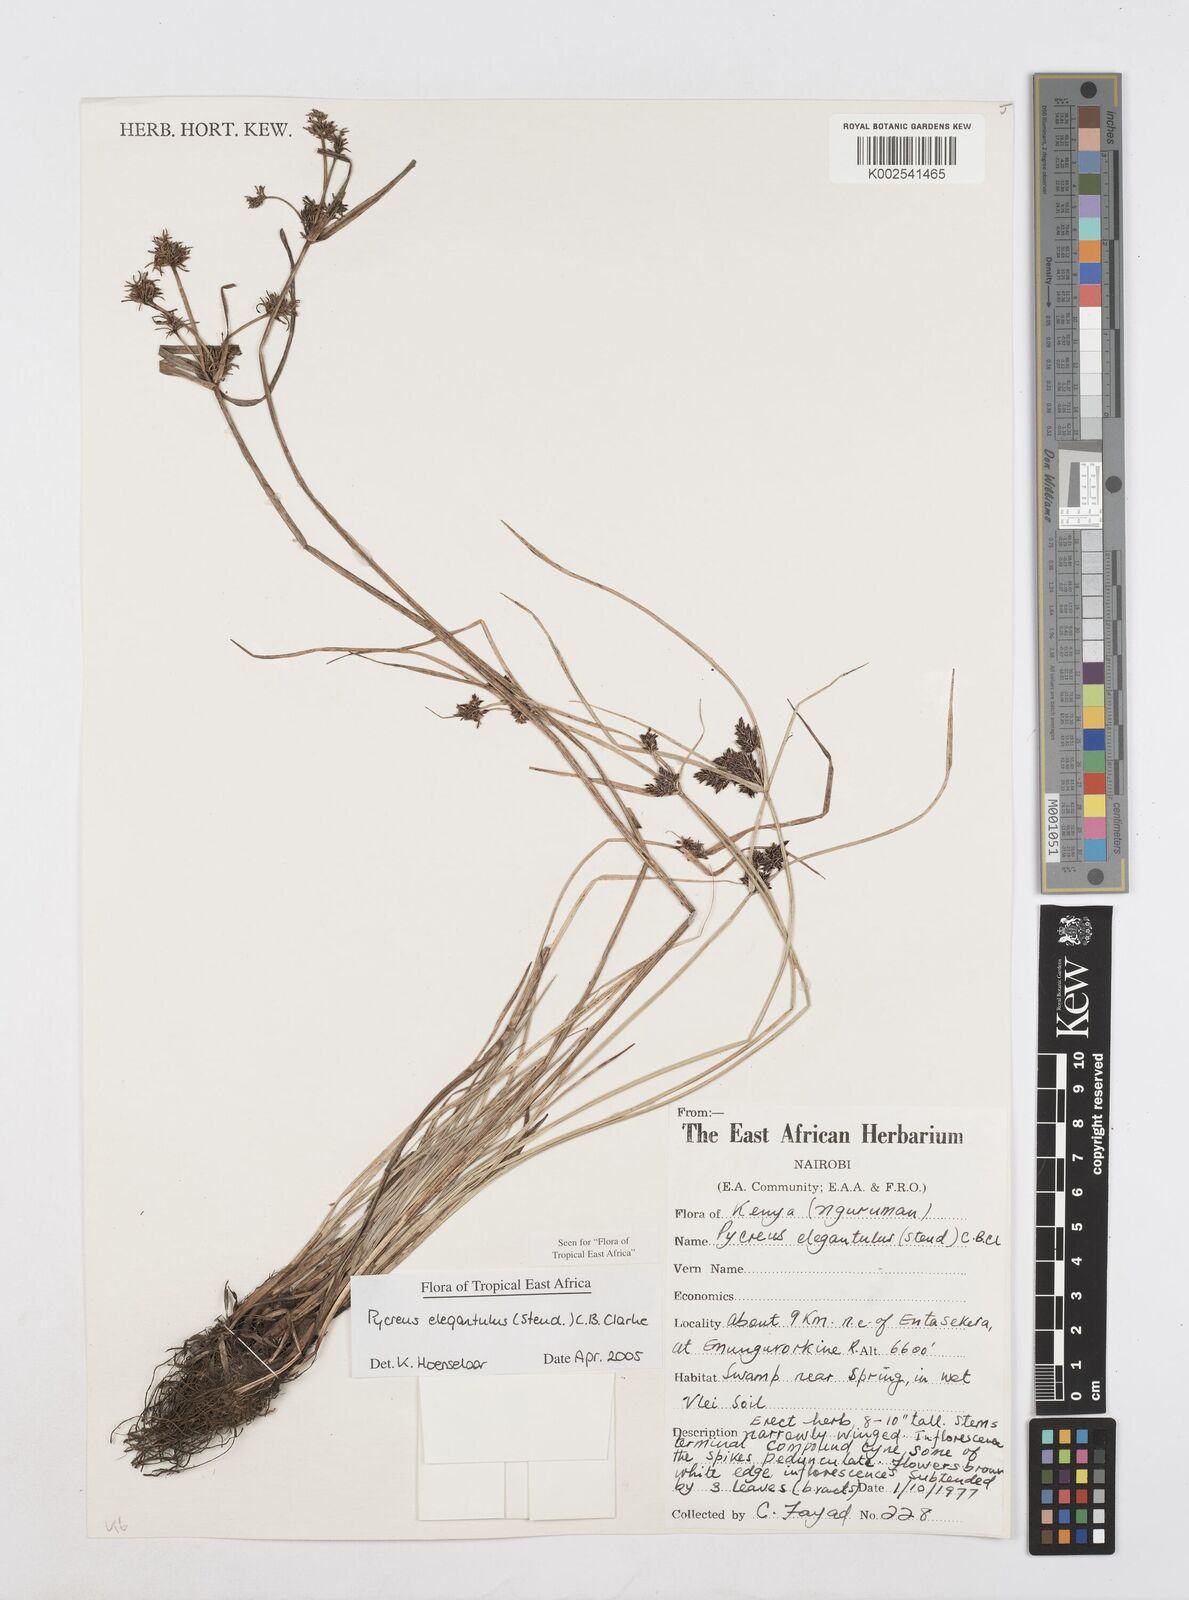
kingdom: Plantae
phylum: Tracheophyta
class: Liliopsida
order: Poales
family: Cyperaceae
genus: Cyperus
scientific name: Cyperus elegantulus
